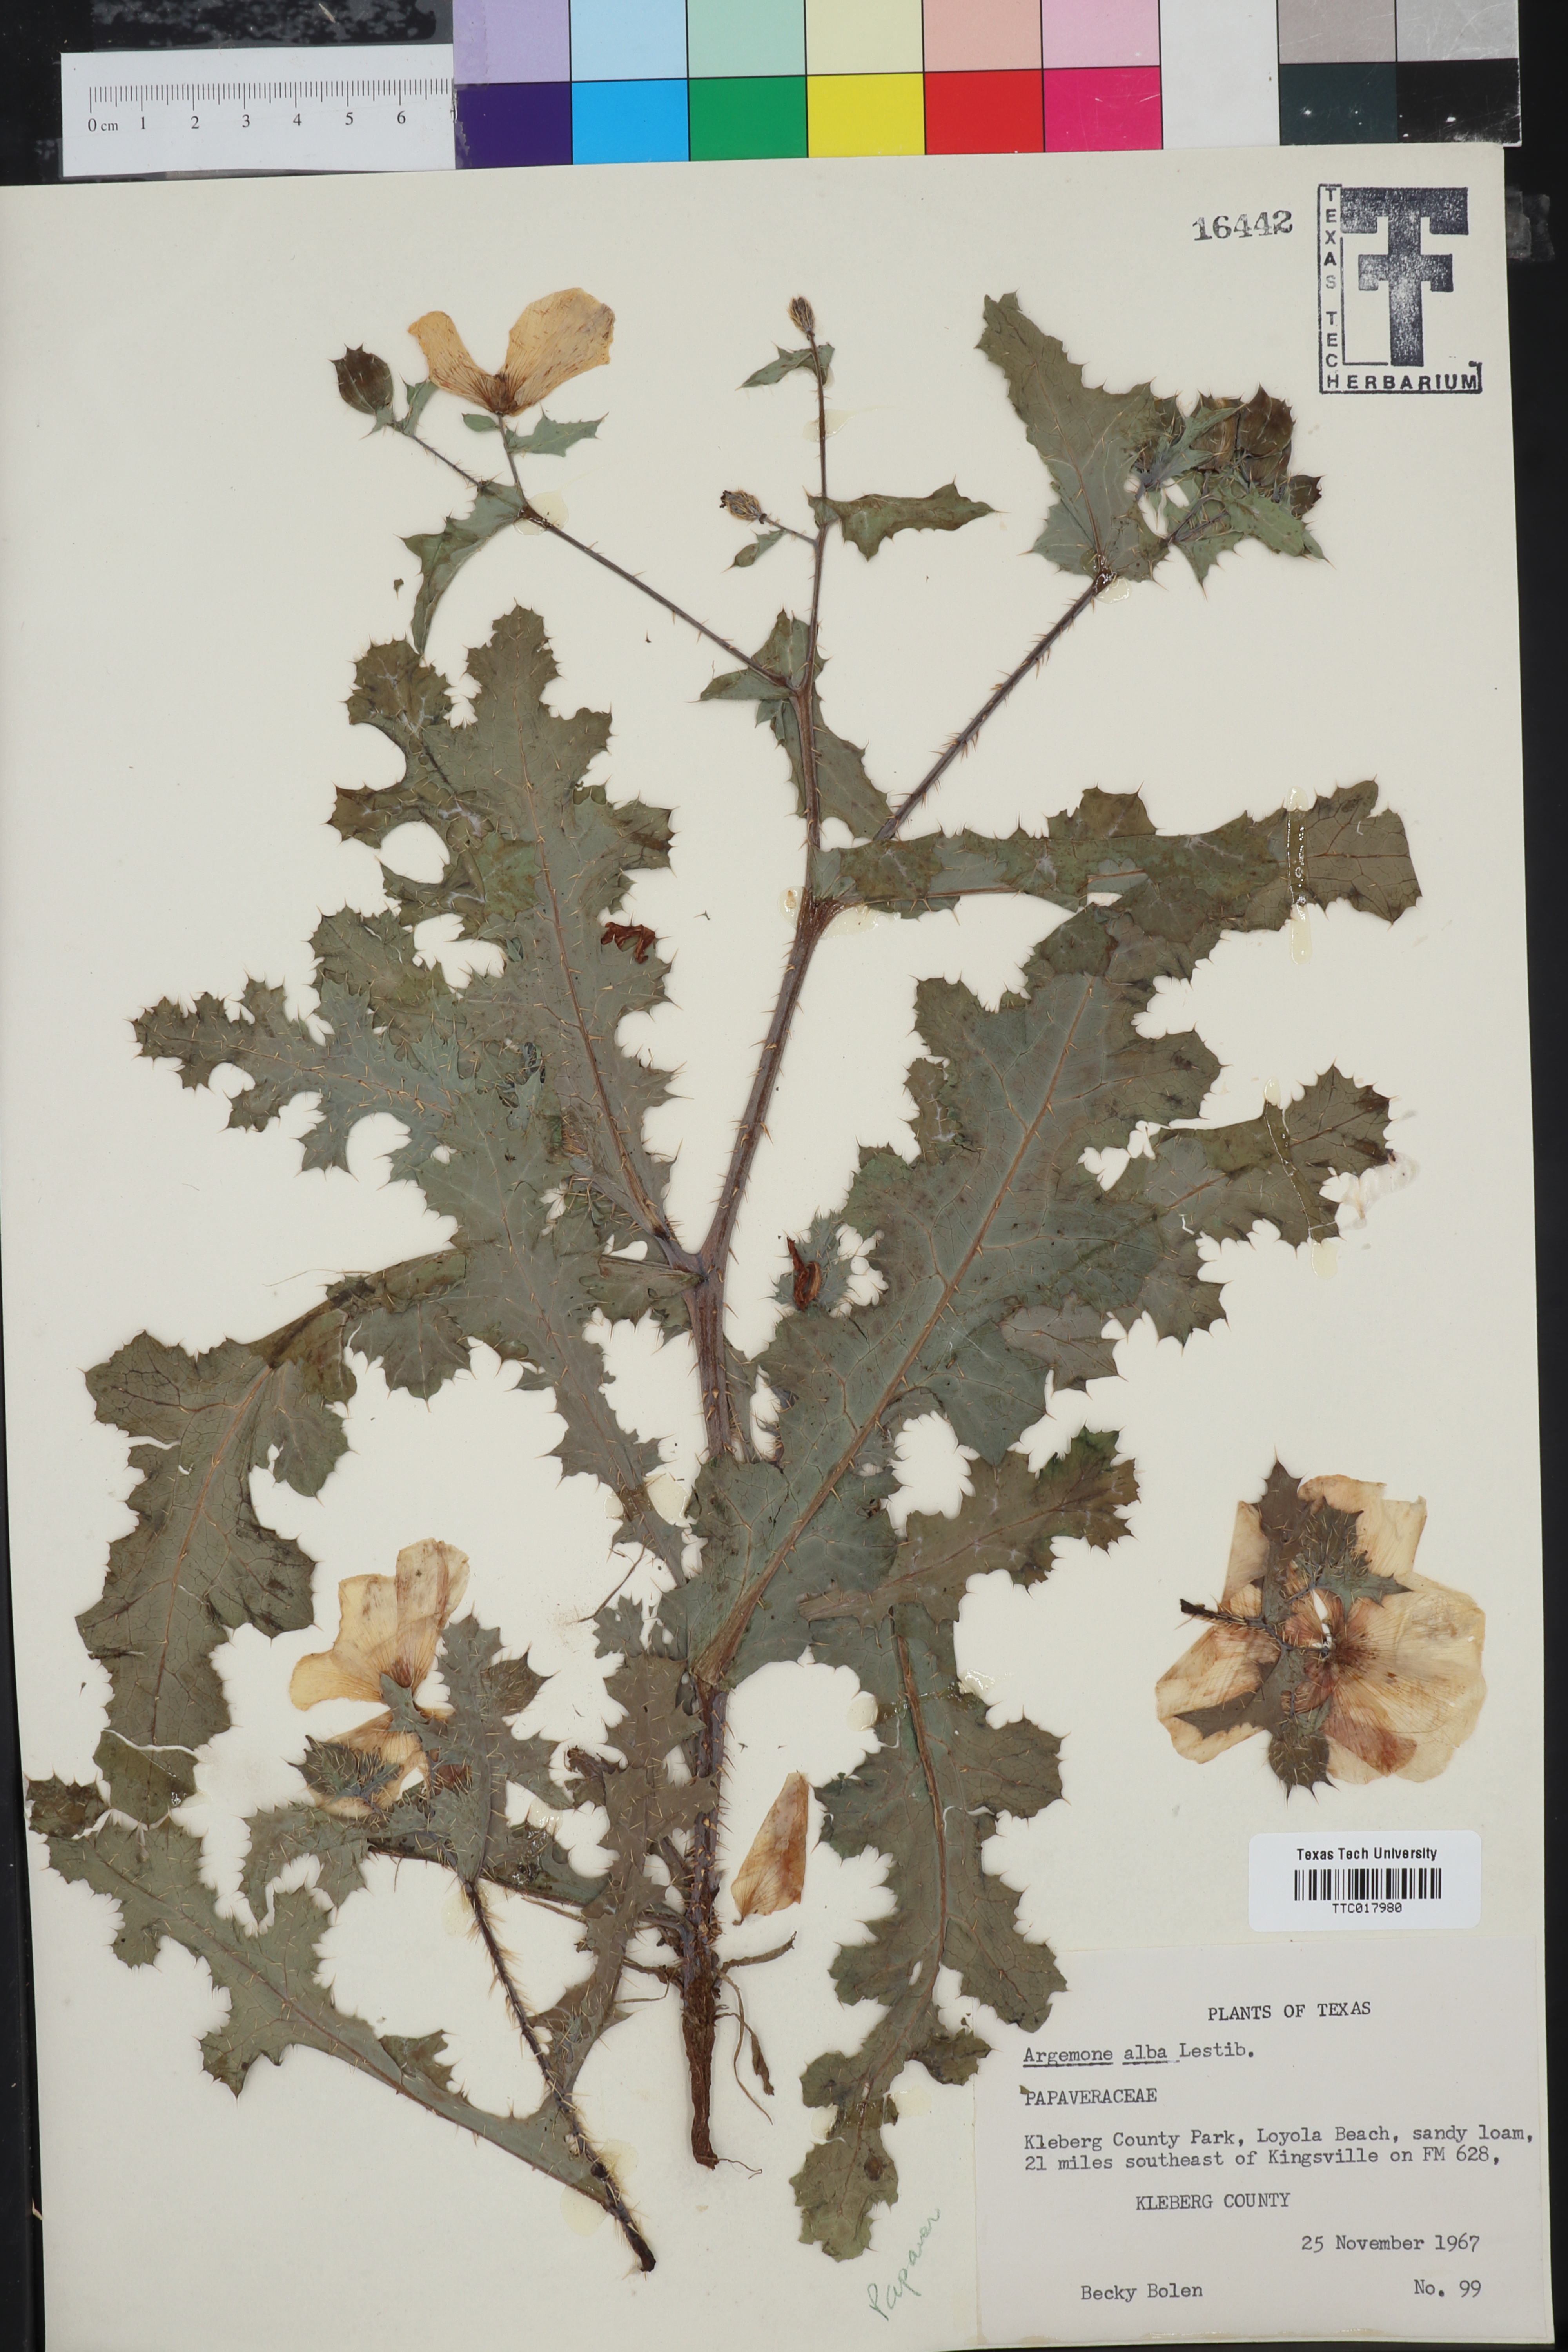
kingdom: Plantae
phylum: Tracheophyta
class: Magnoliopsida
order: Ranunculales
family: Papaveraceae
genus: Argemone
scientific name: Argemone albiflora
